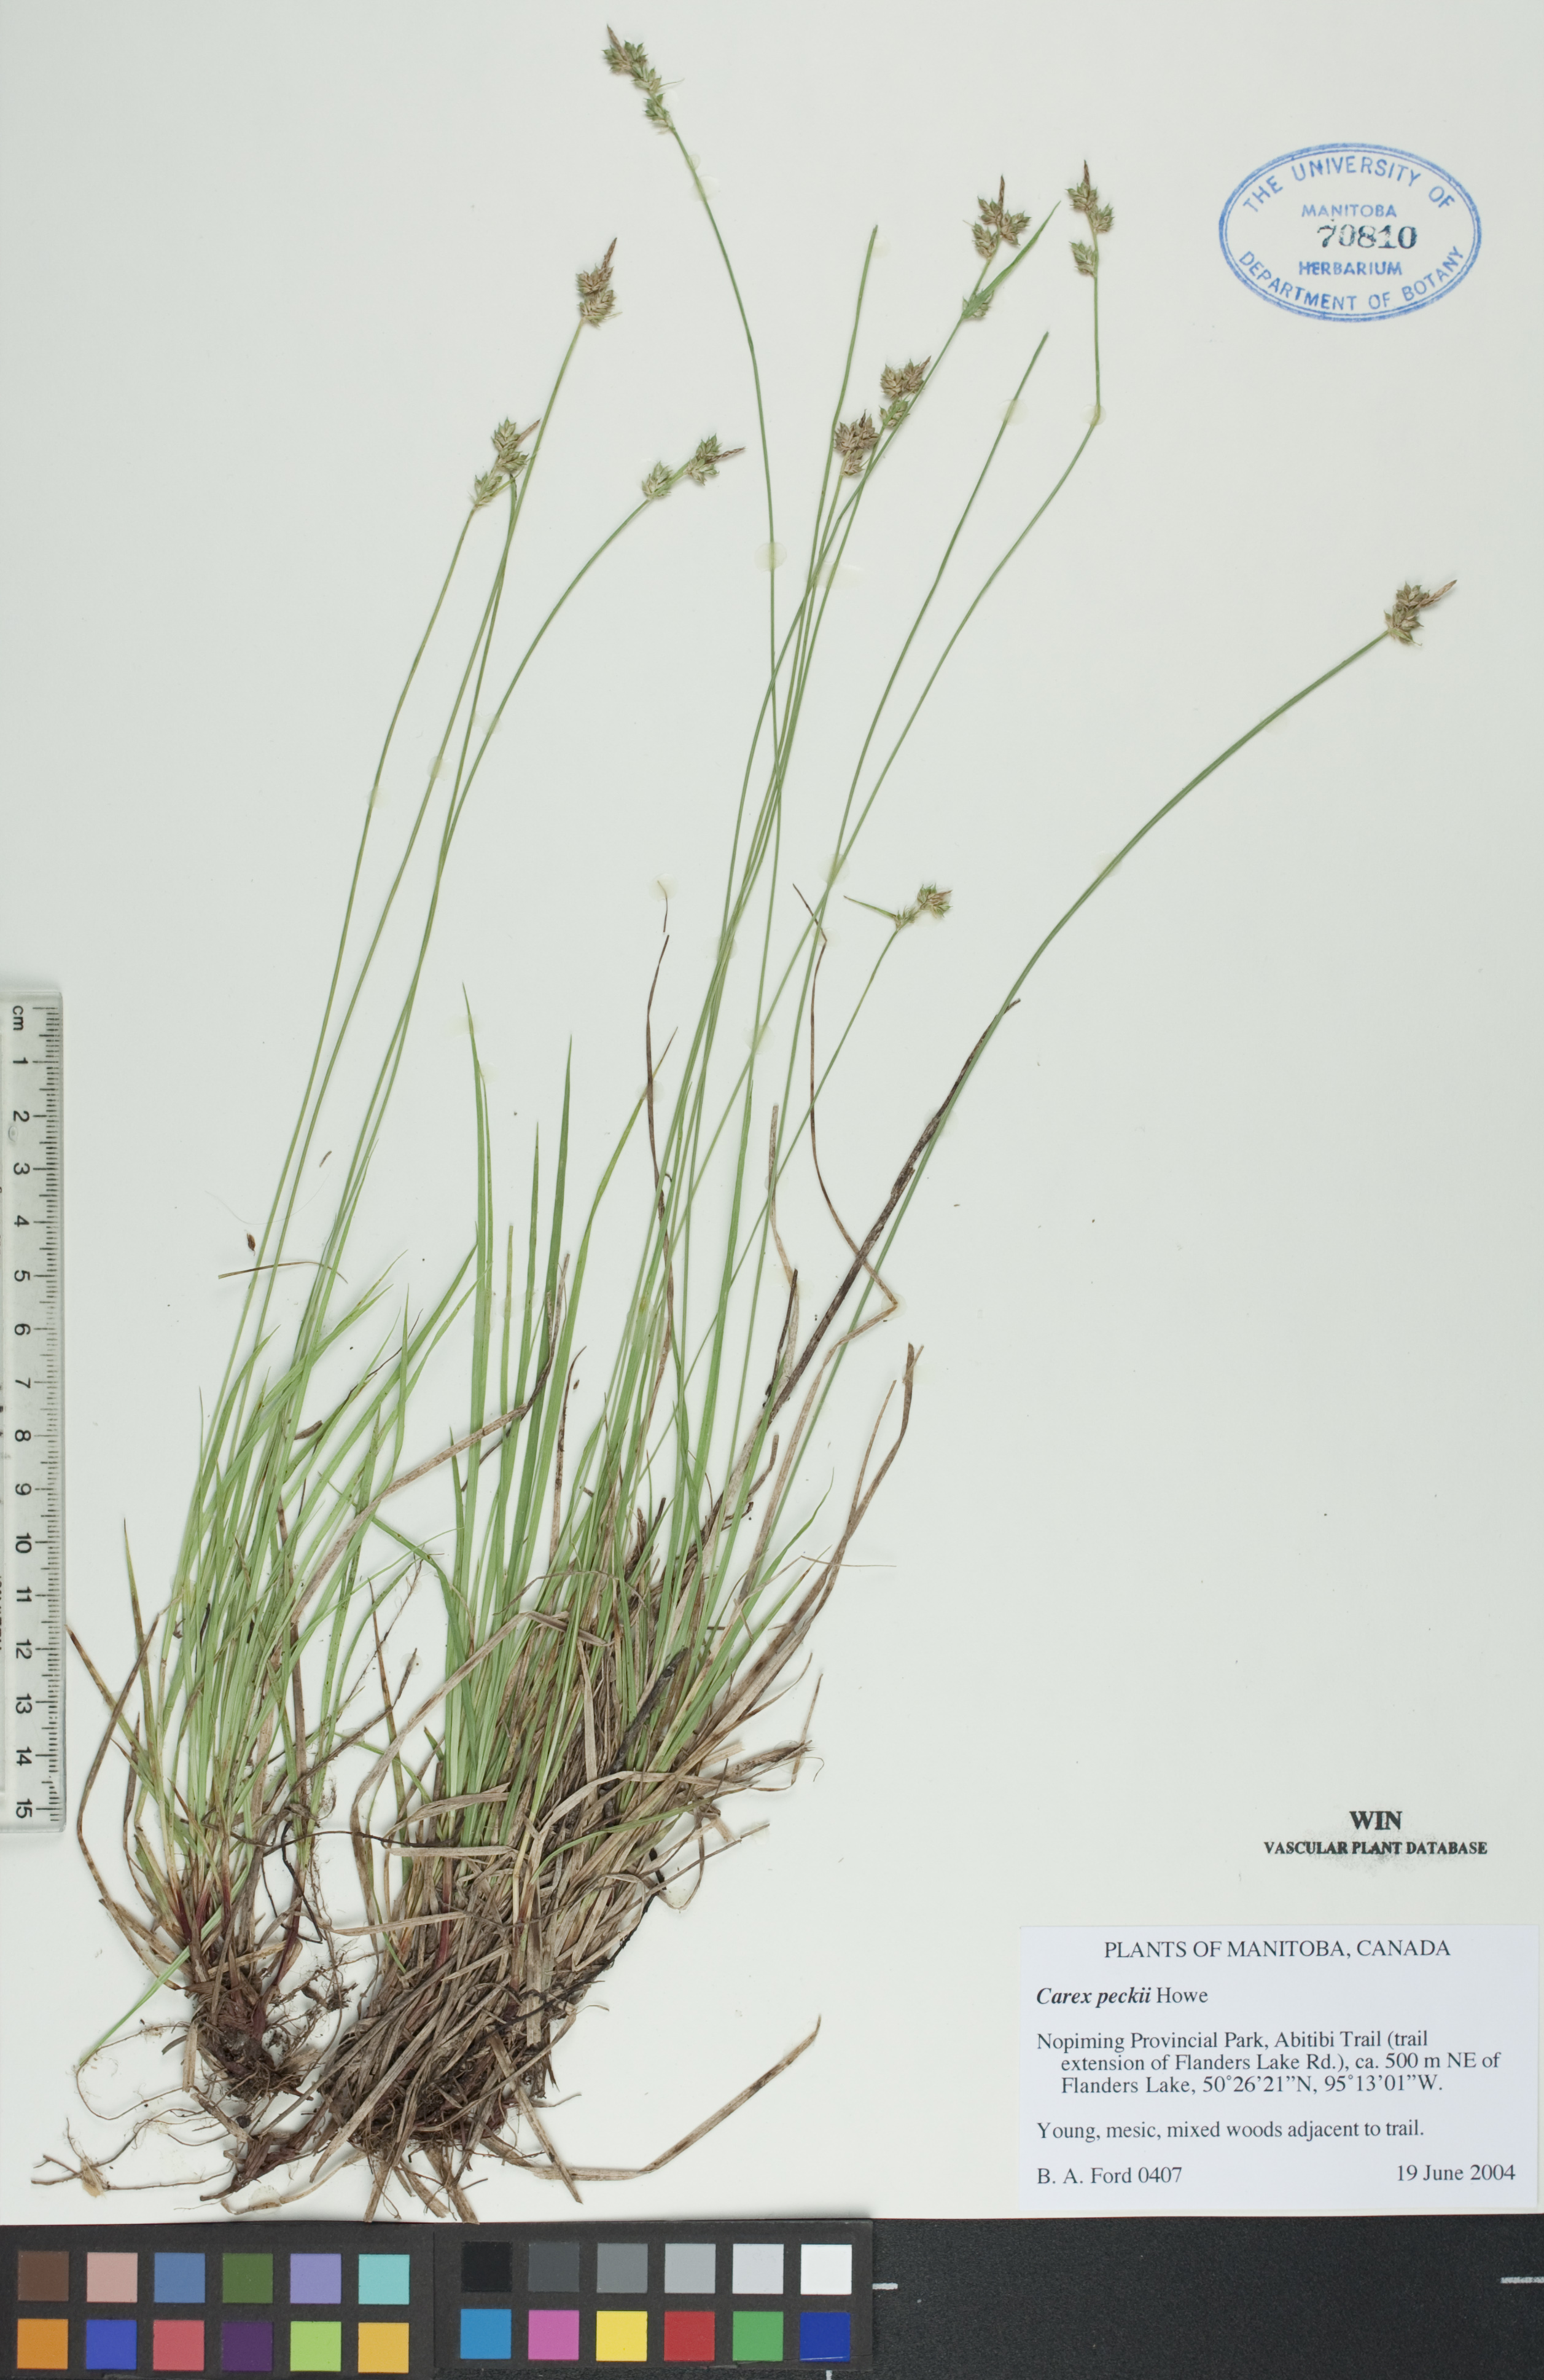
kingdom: Plantae
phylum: Tracheophyta
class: Liliopsida
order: Poales
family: Cyperaceae
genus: Carex
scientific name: Carex peckii
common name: Peck's oak sedge
